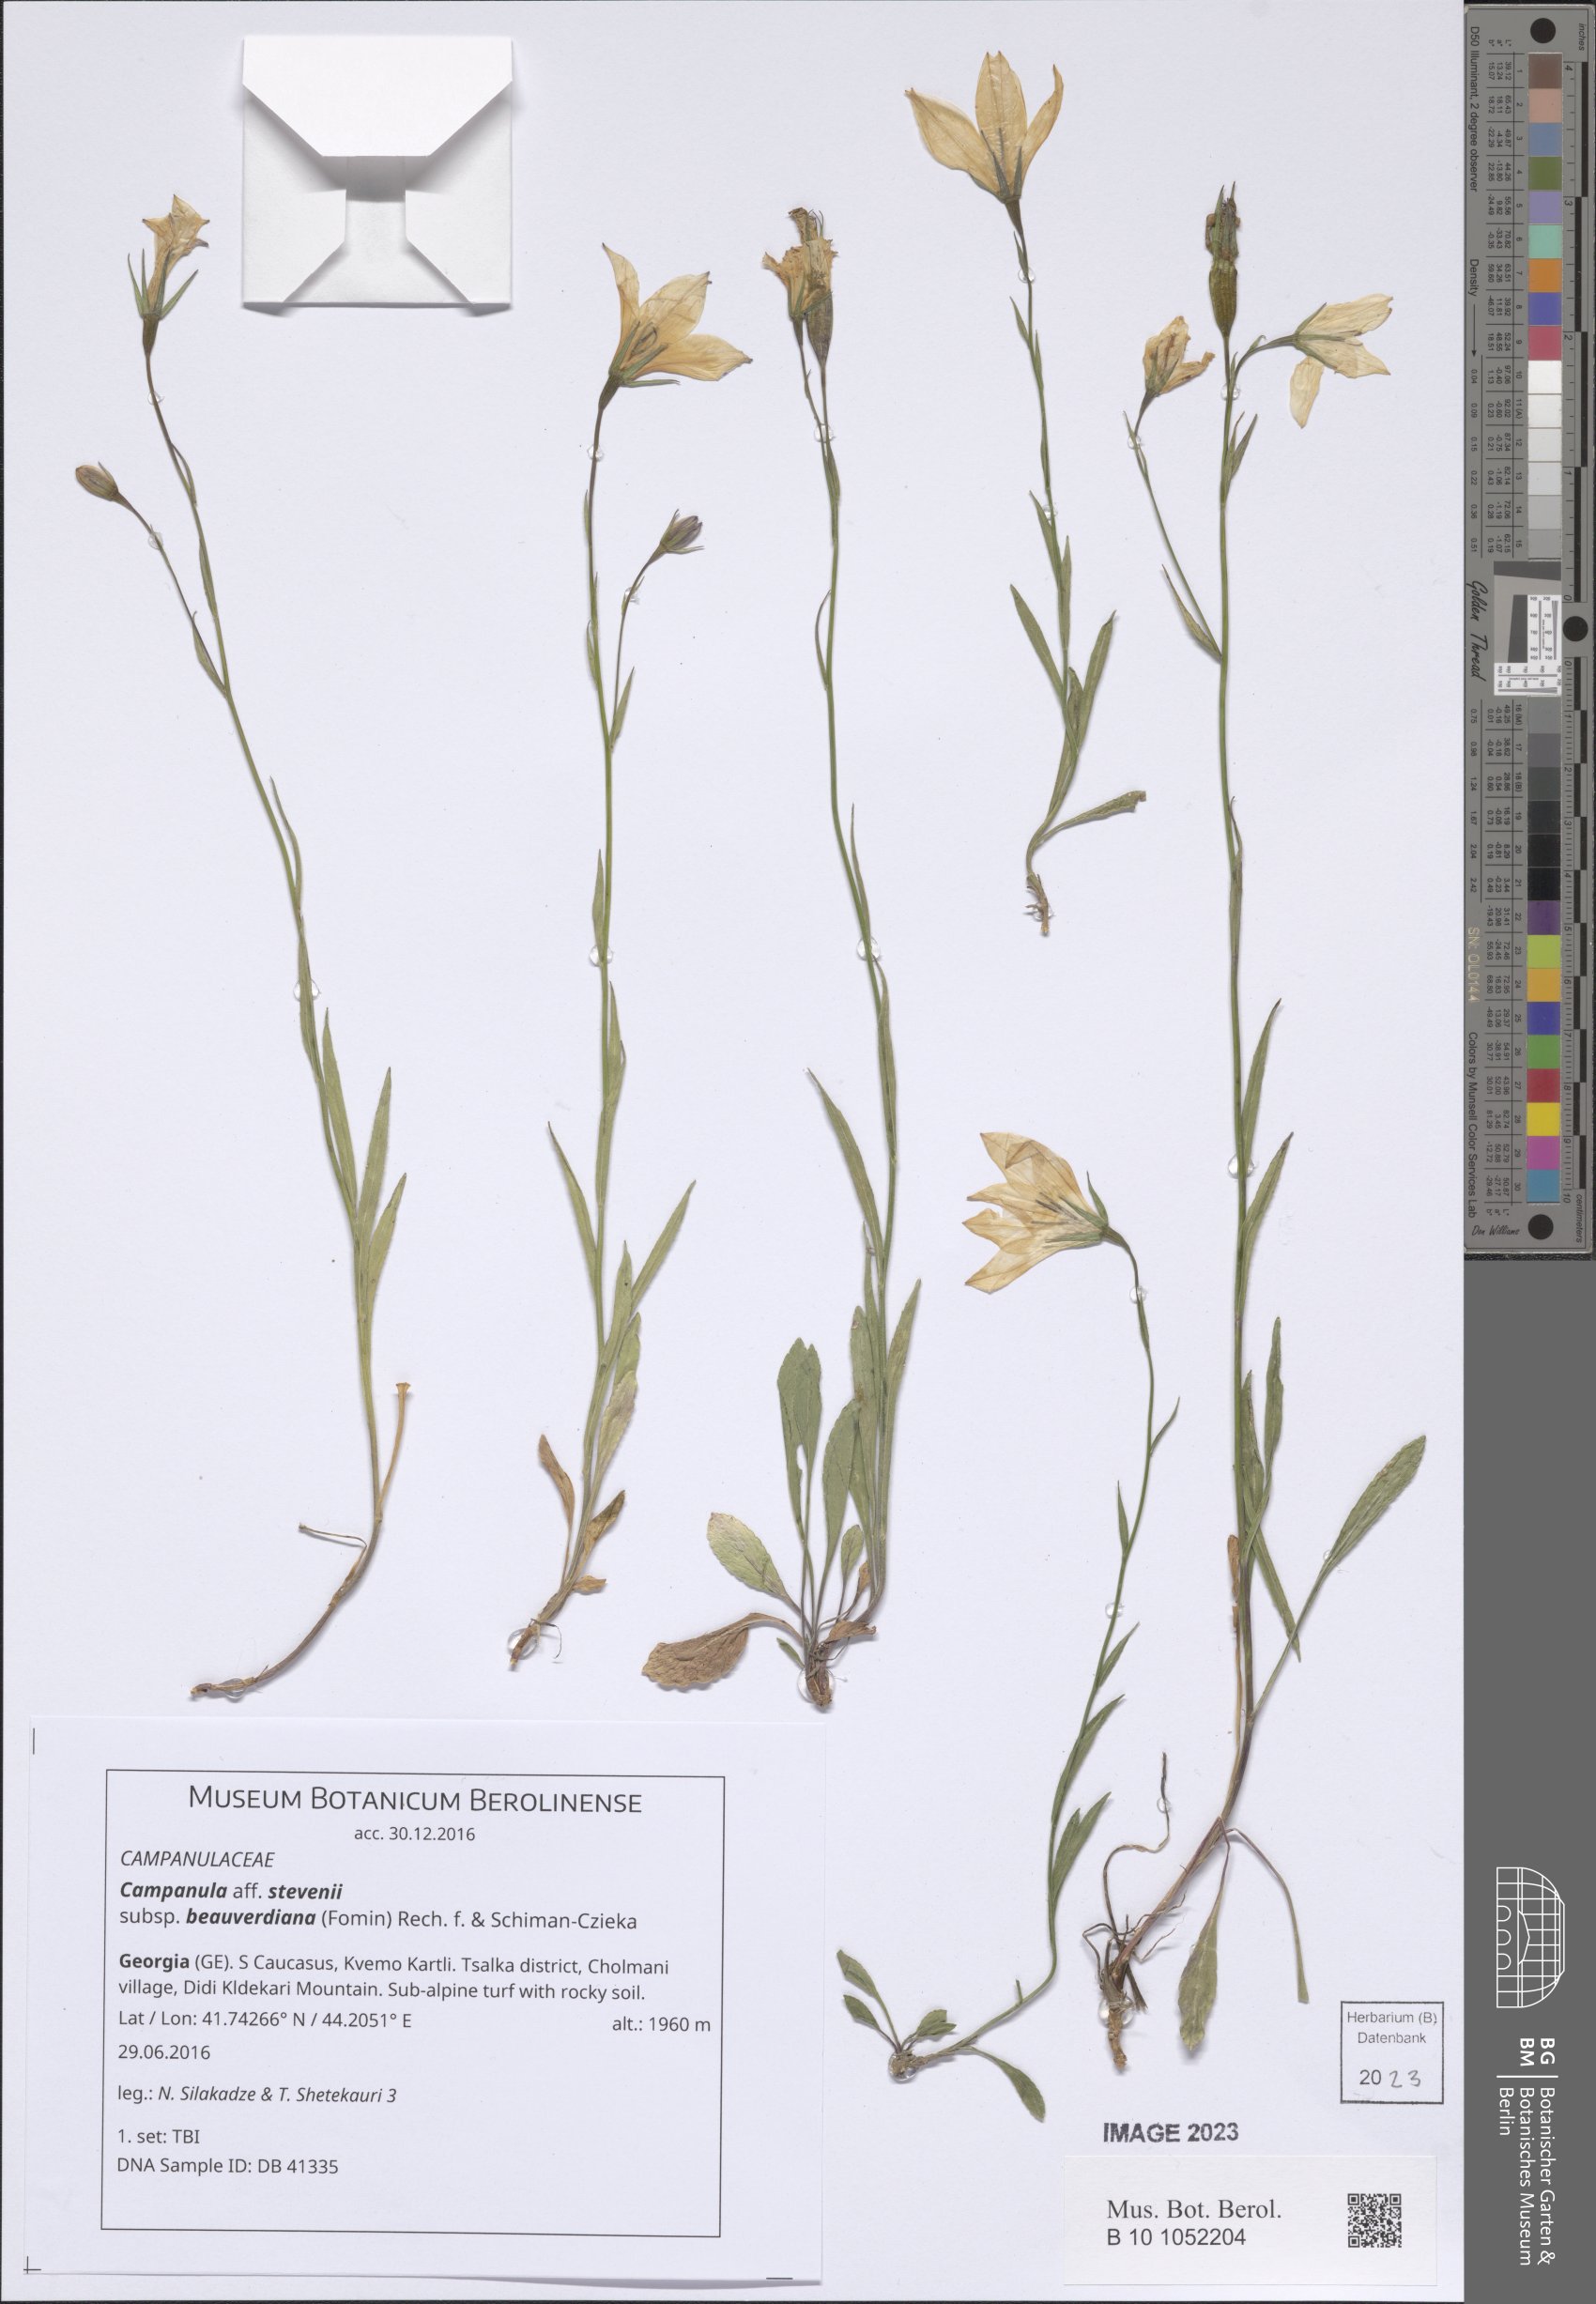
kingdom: Plantae
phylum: Tracheophyta
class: Magnoliopsida
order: Asterales
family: Campanulaceae
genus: Campanula
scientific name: Campanula stevenii
